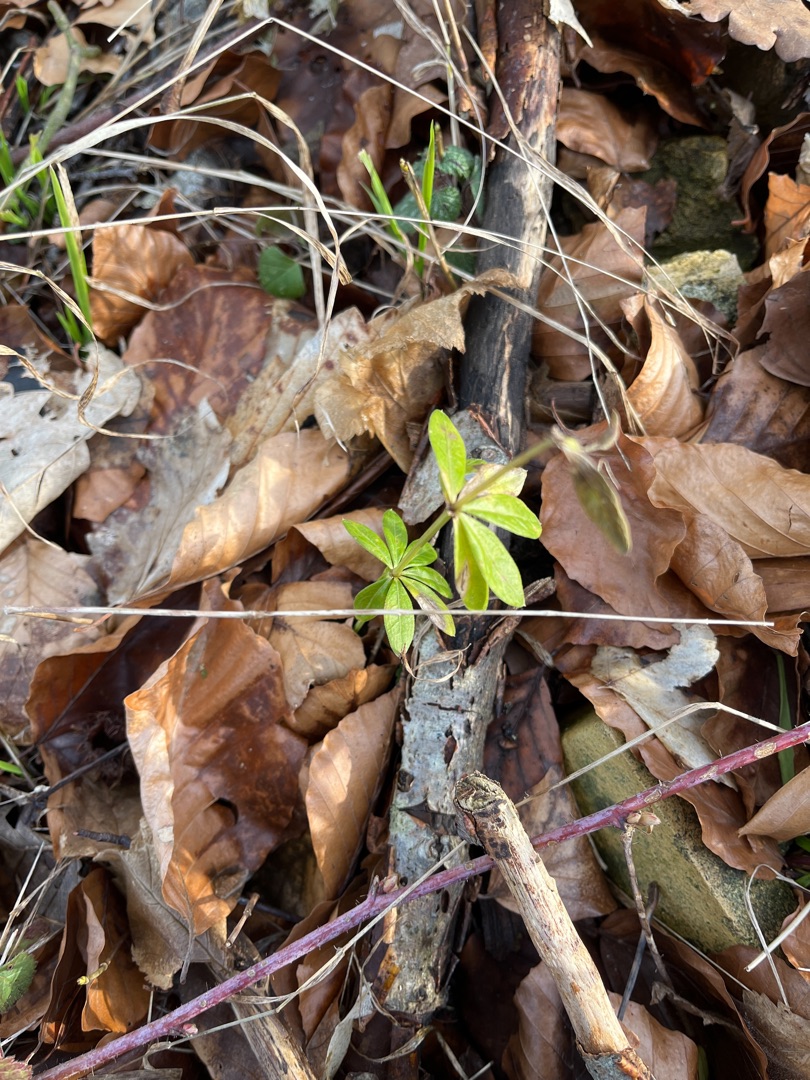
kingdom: Plantae
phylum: Tracheophyta
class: Magnoliopsida
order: Gentianales
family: Rubiaceae
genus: Galium
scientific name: Galium odoratum
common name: Skovmærke
